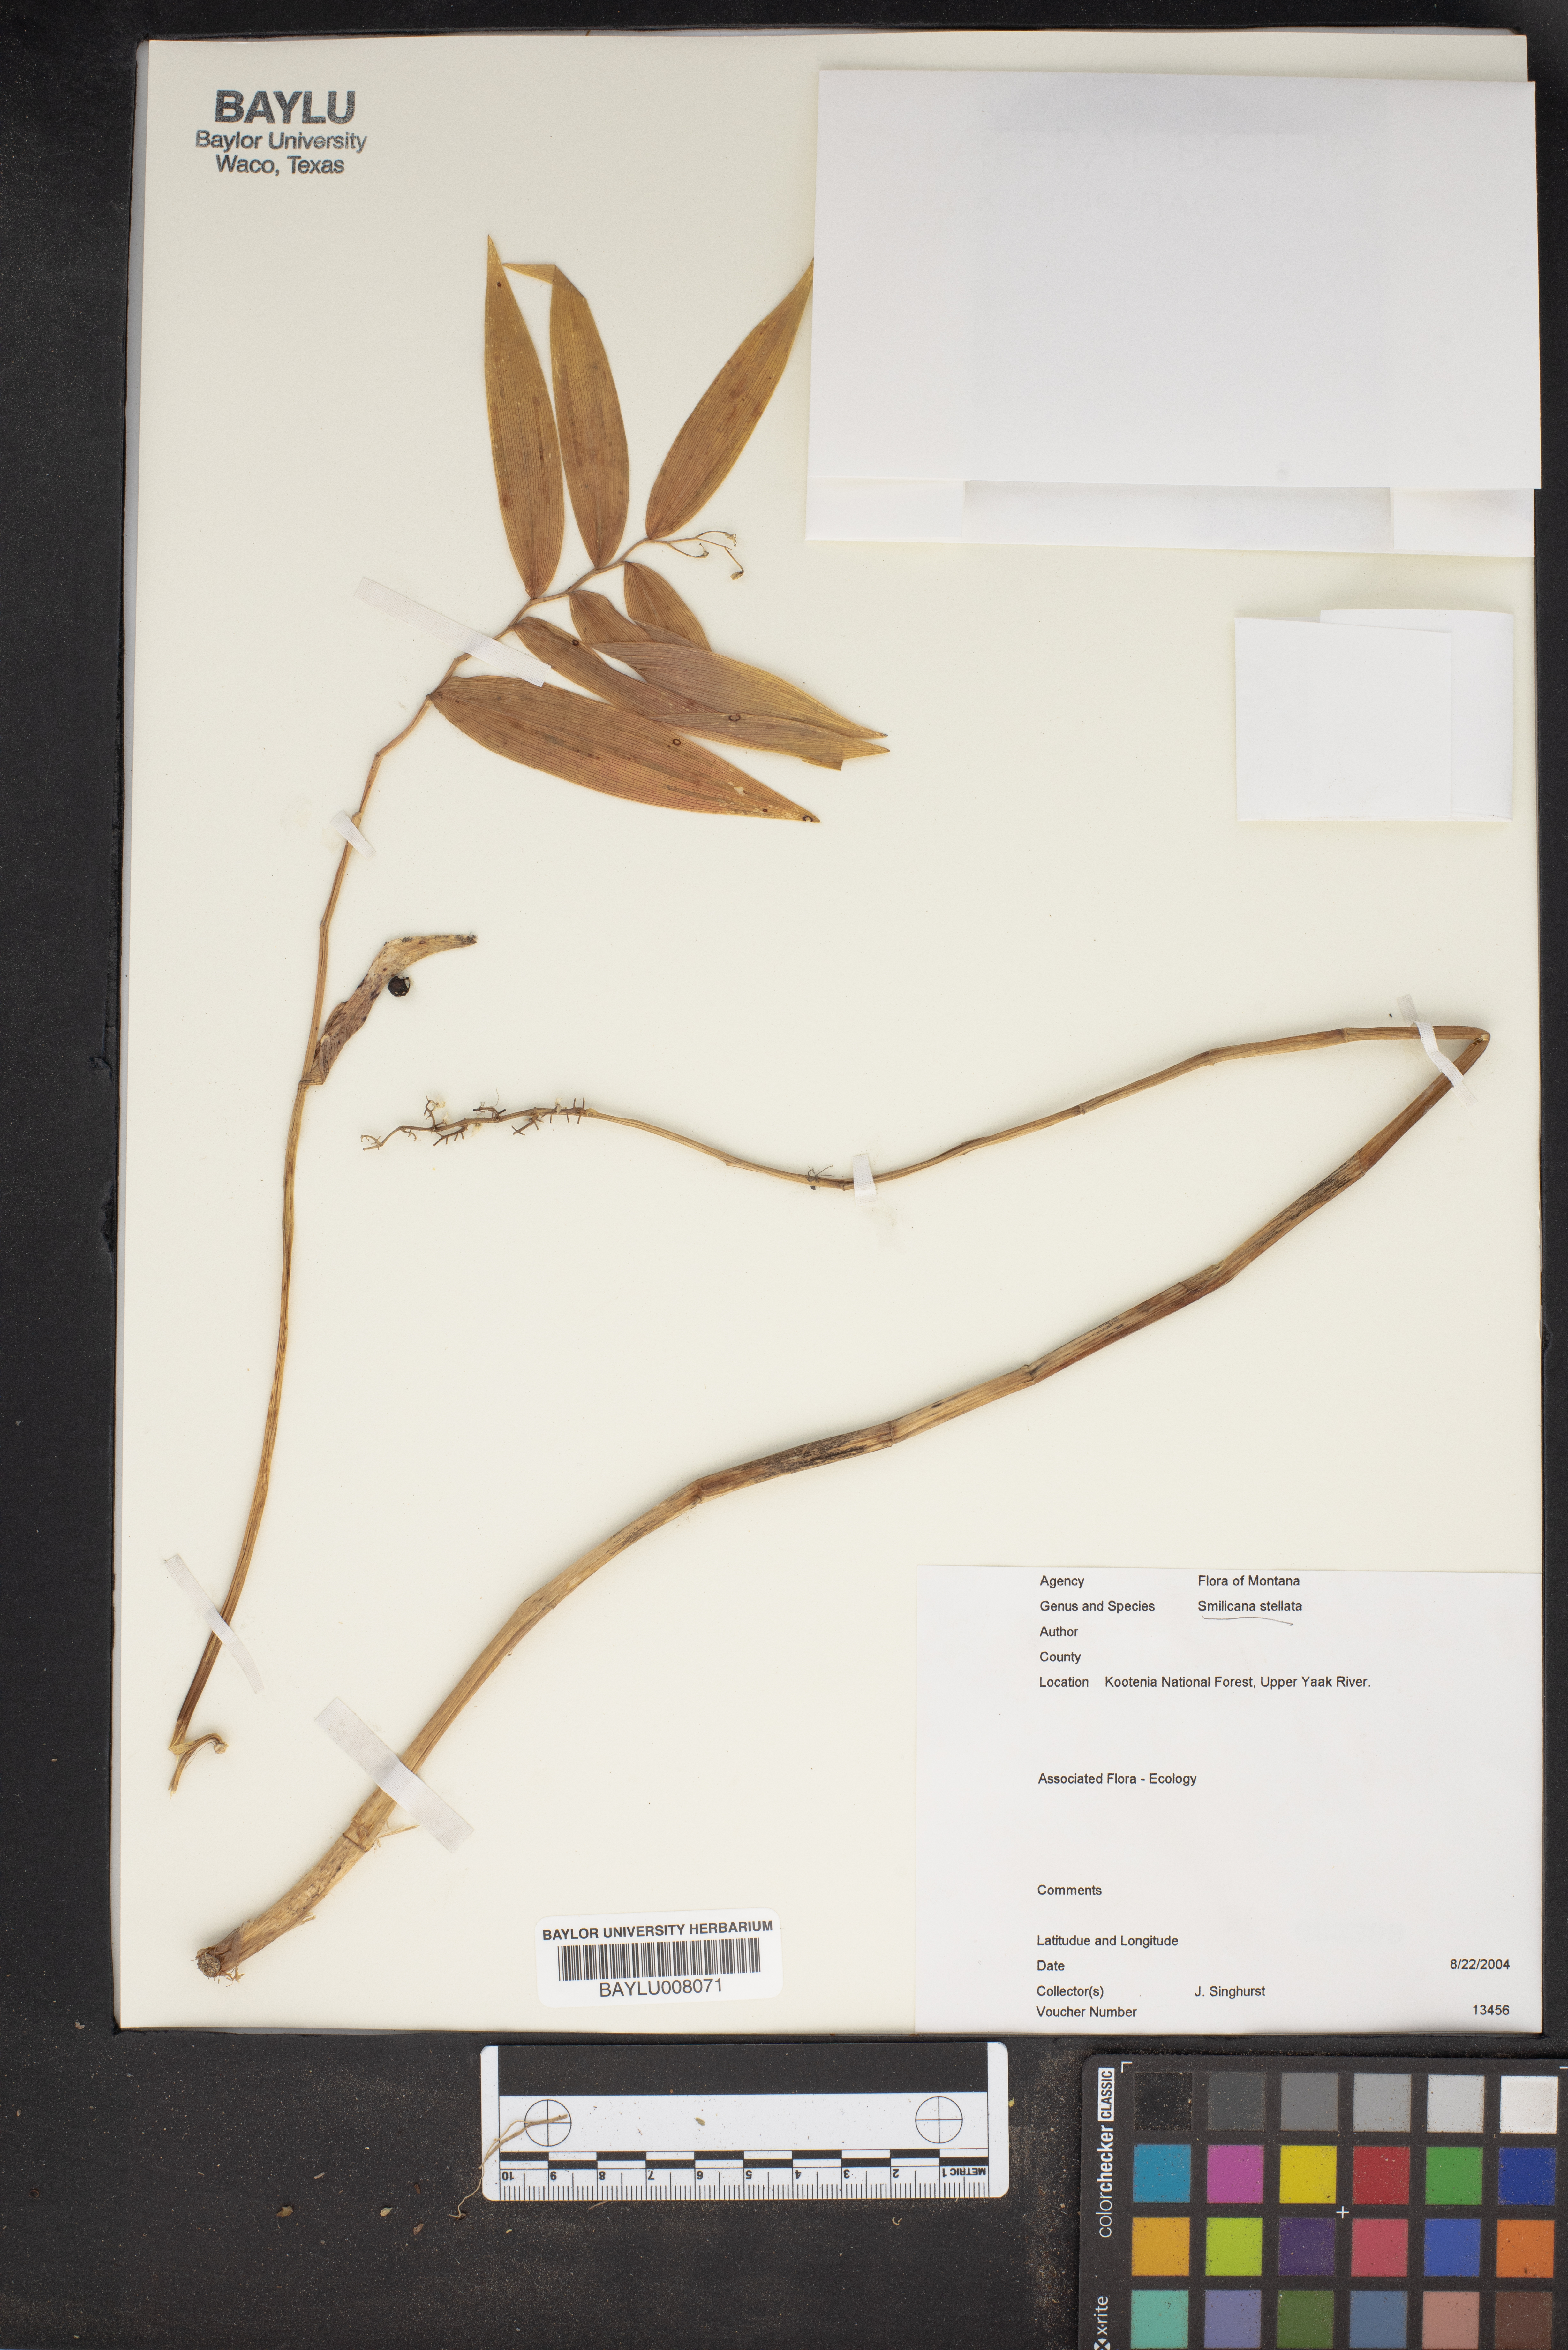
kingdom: Plantae
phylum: Tracheophyta
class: Liliopsida
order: Asparagales
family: Asparagaceae
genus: Maianthemum
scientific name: Maianthemum stellatum
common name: Little false solomon's seal
